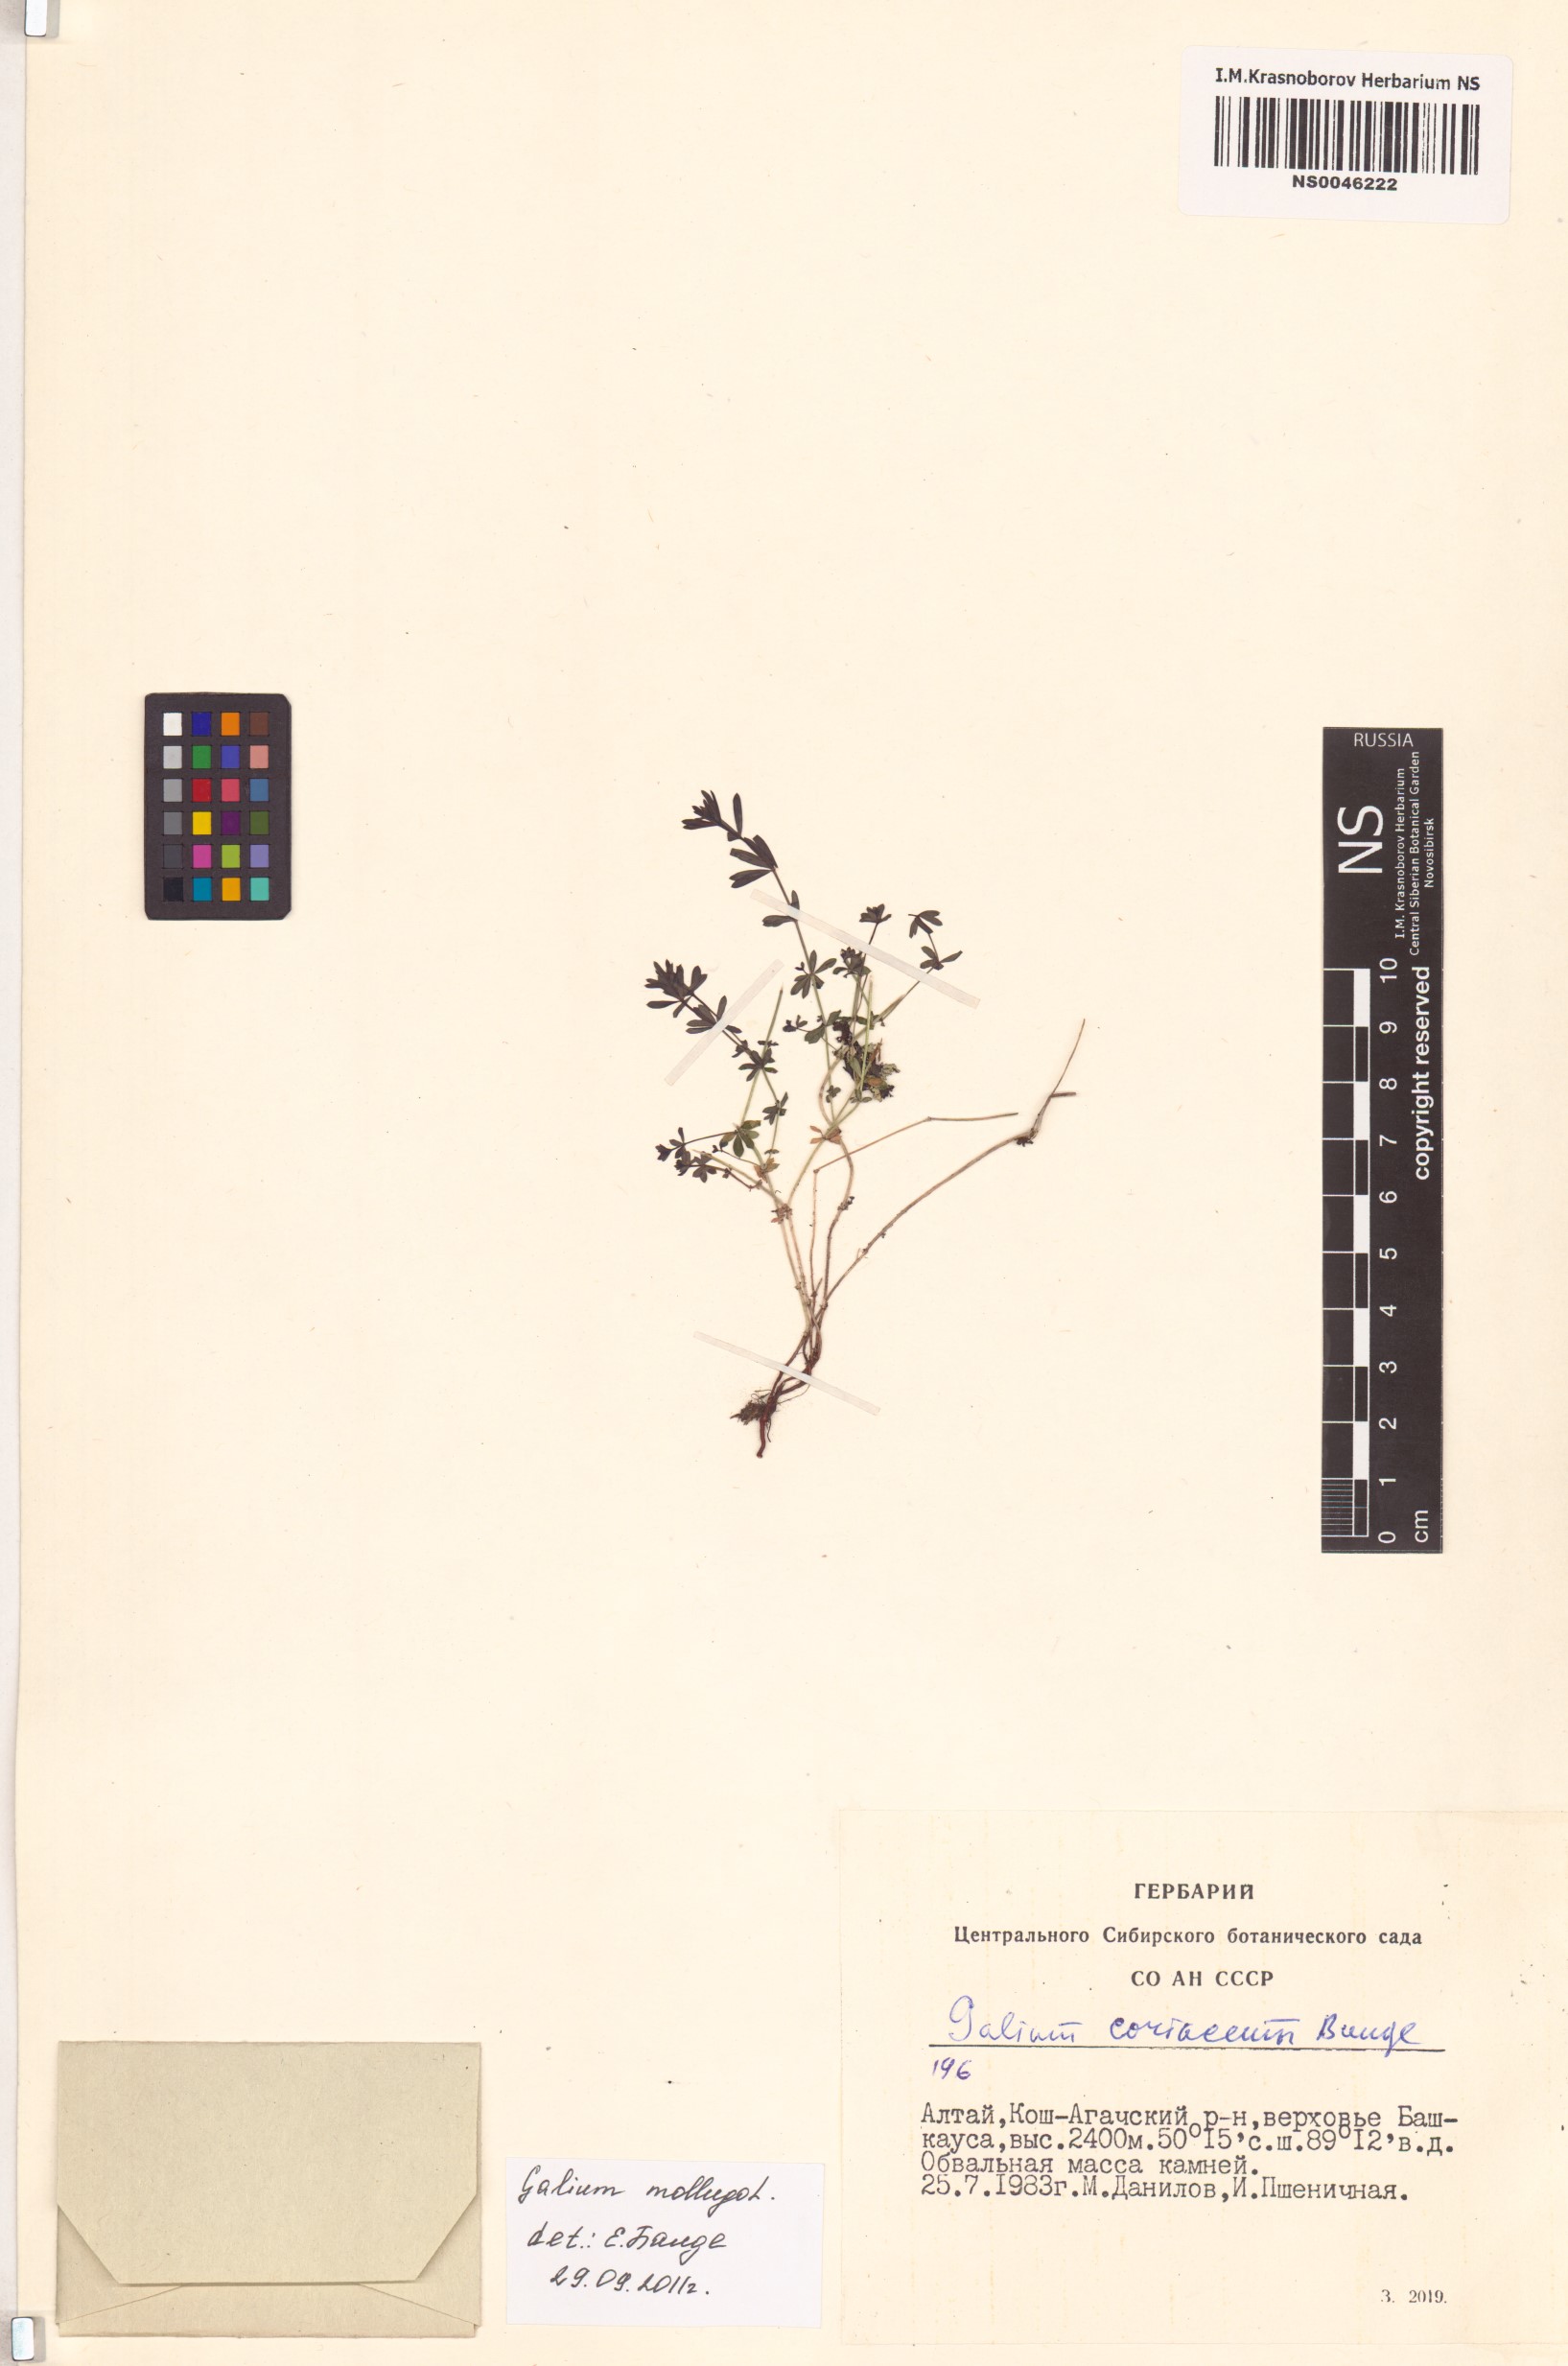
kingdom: Plantae
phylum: Tracheophyta
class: Magnoliopsida
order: Gentianales
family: Rubiaceae
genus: Galium
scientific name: Galium mollugo
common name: Hedge bedstraw
